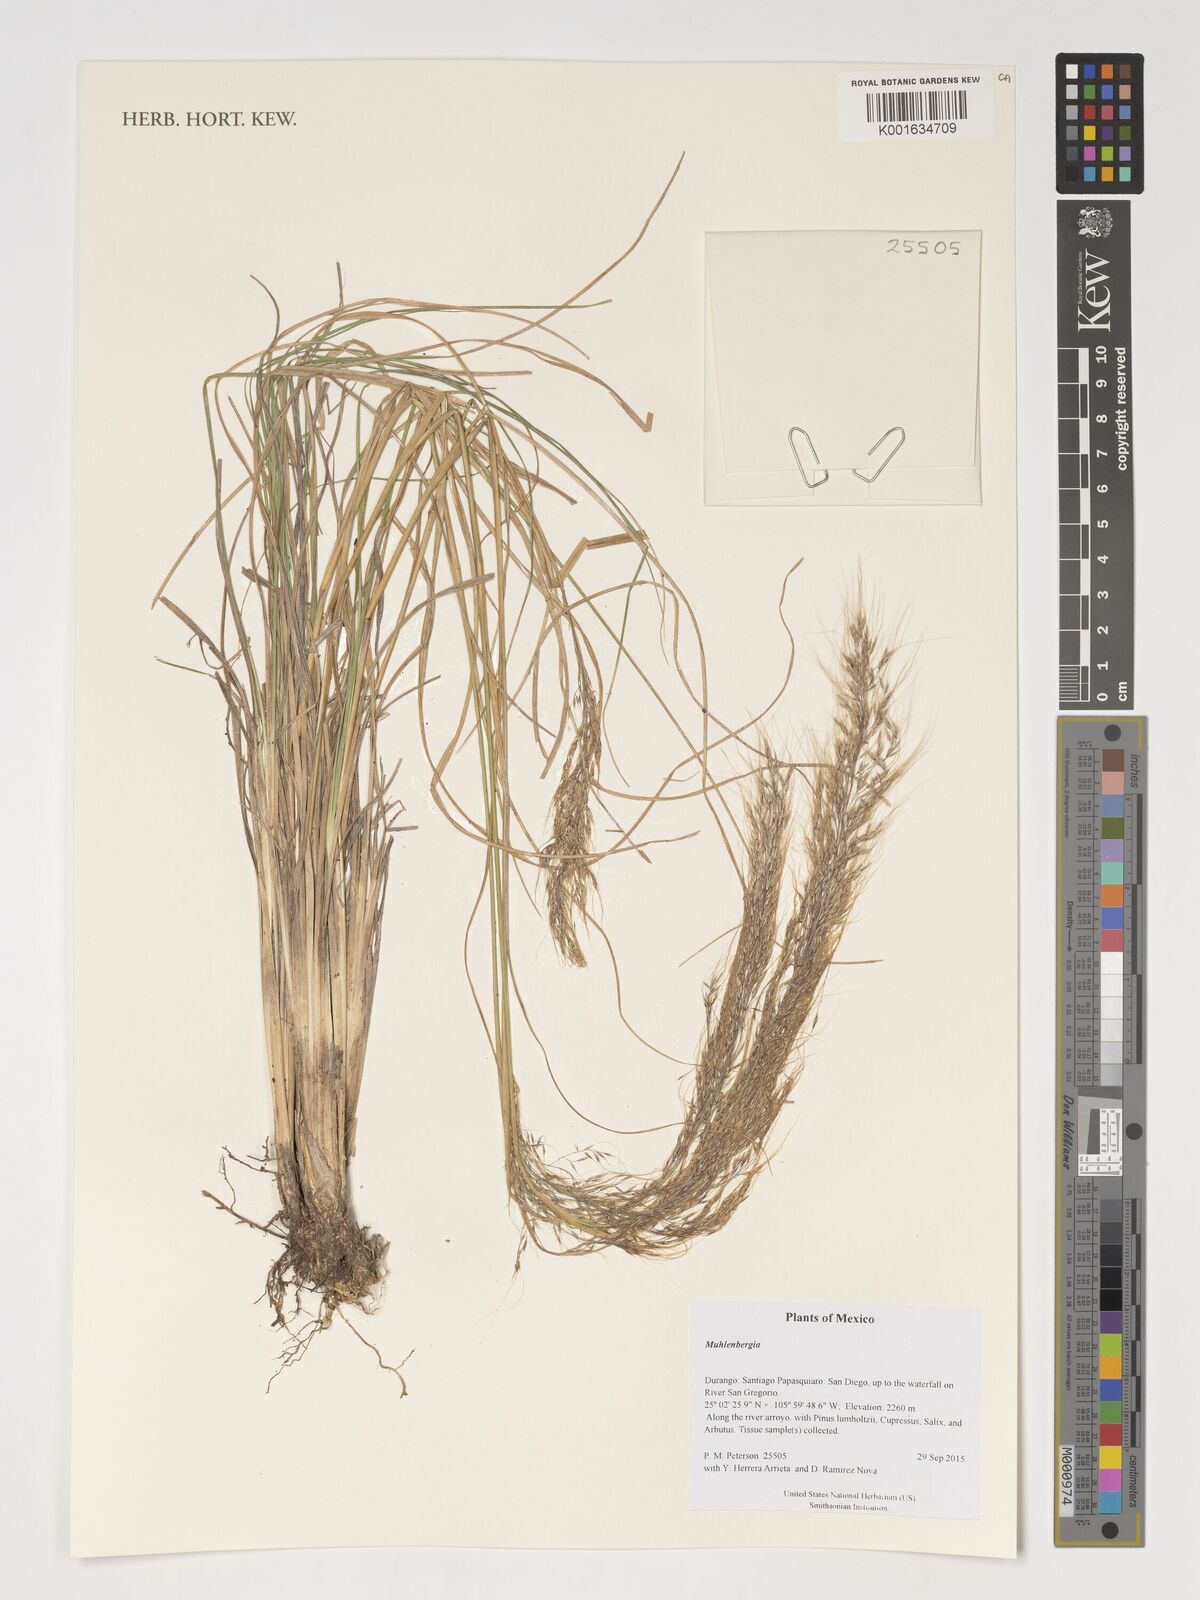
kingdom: Plantae
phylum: Tracheophyta
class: Liliopsida
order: Poales
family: Poaceae
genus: Muhlenbergia
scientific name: Muhlenbergia
